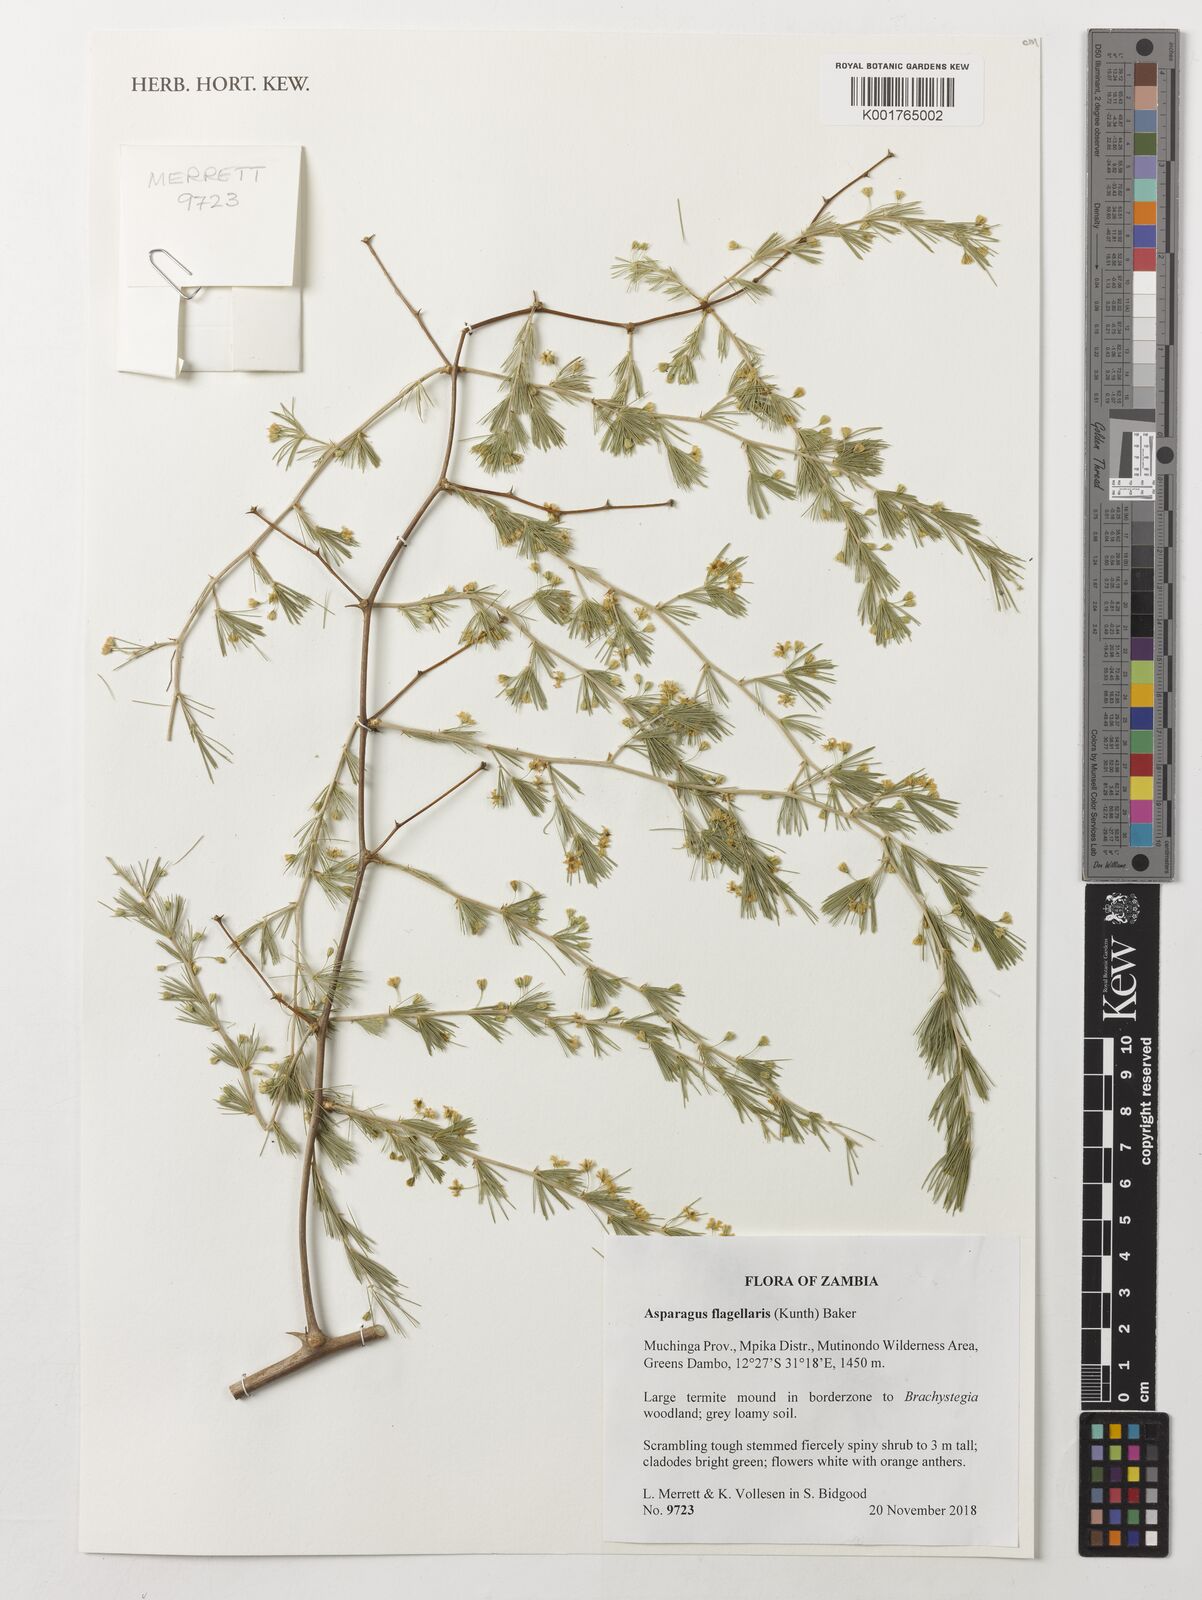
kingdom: Plantae
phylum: Tracheophyta
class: Liliopsida
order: Asparagales
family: Asparagaceae
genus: Asparagus
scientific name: Asparagus flagellaris
